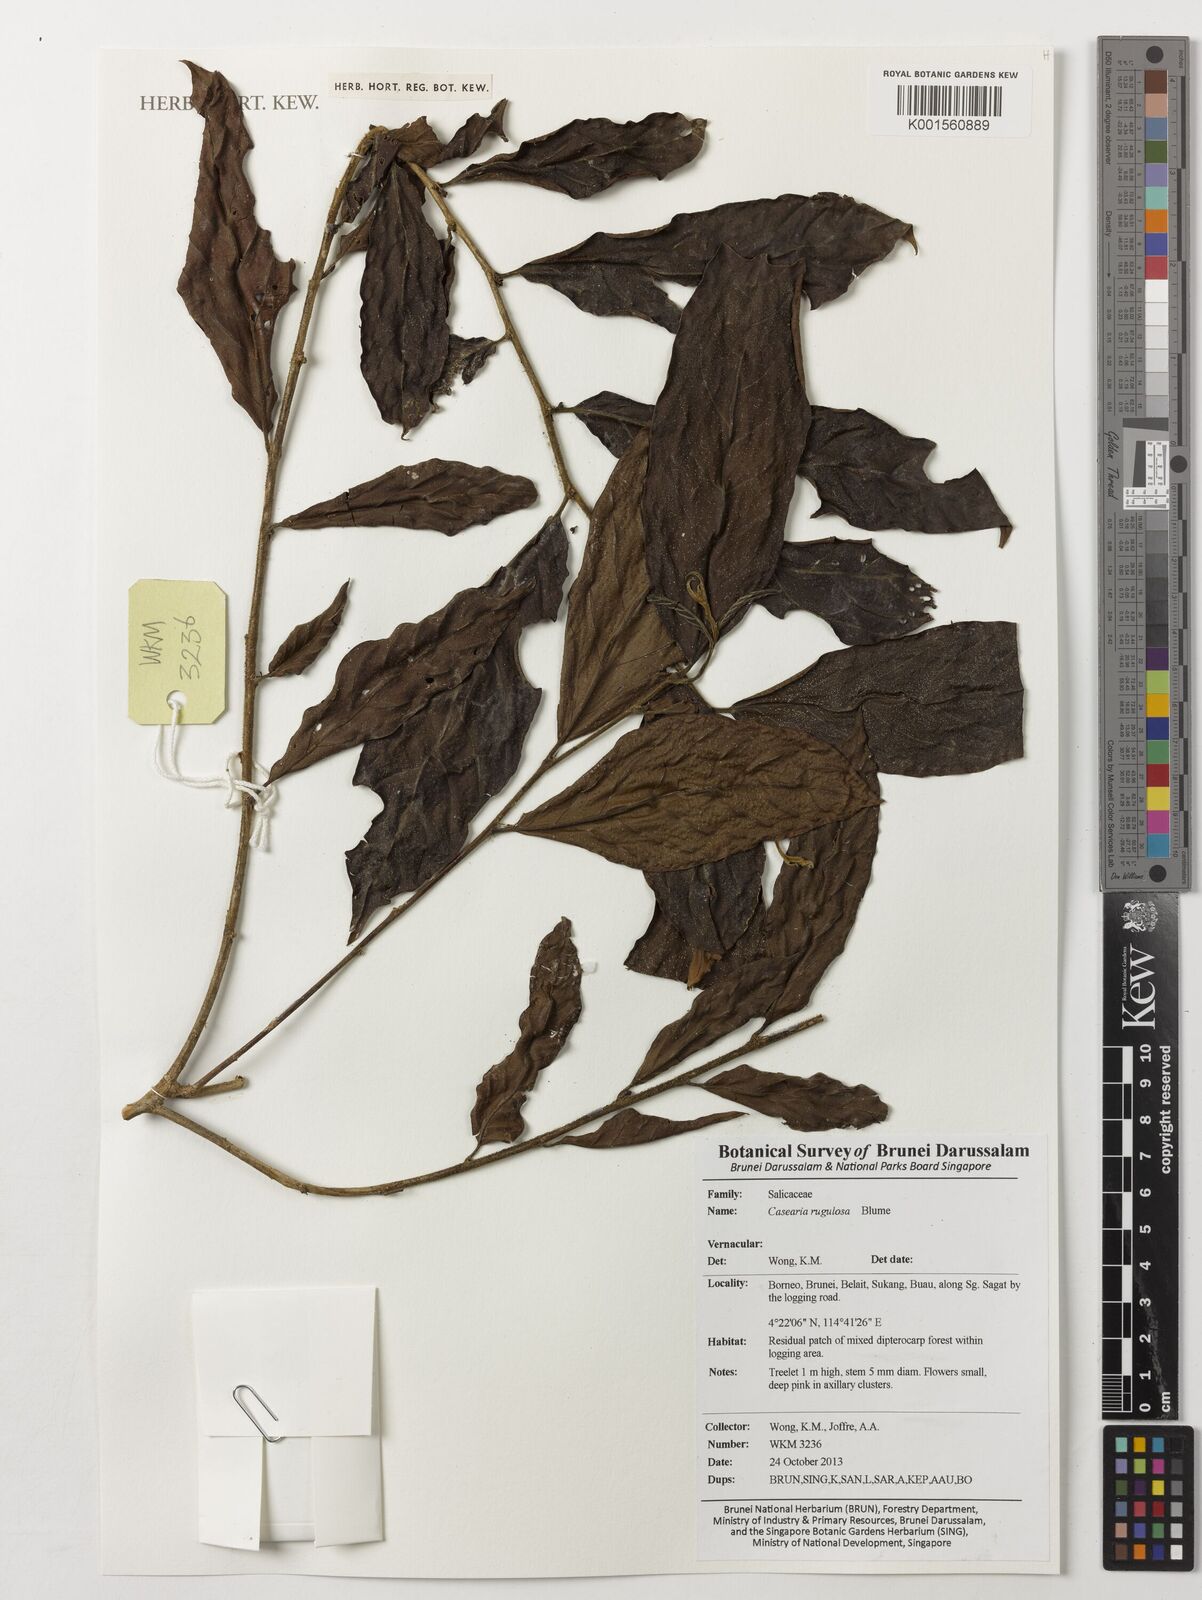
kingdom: Plantae
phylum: Tracheophyta
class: Magnoliopsida
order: Malpighiales
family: Salicaceae
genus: Casearia
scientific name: Casearia rugulosa
